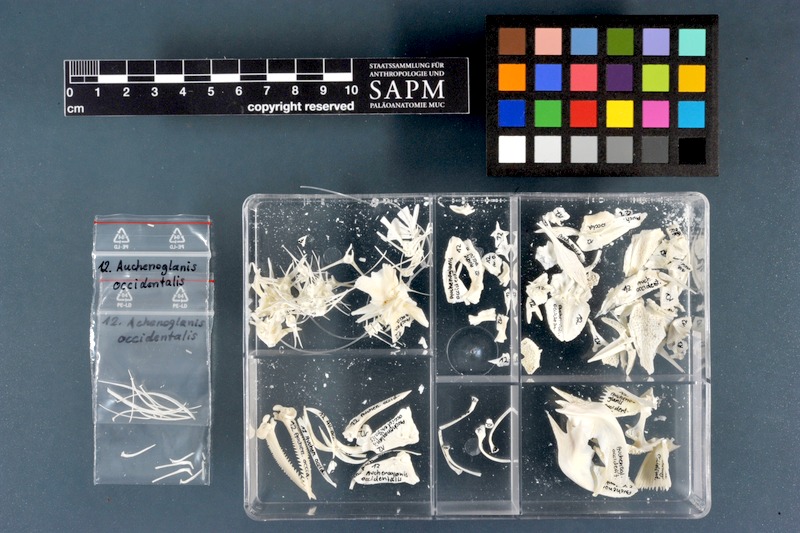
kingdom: Animalia
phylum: Chordata
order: Siluriformes
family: Claroteidae
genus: Auchenoglanis
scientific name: Auchenoglanis occidentalis
